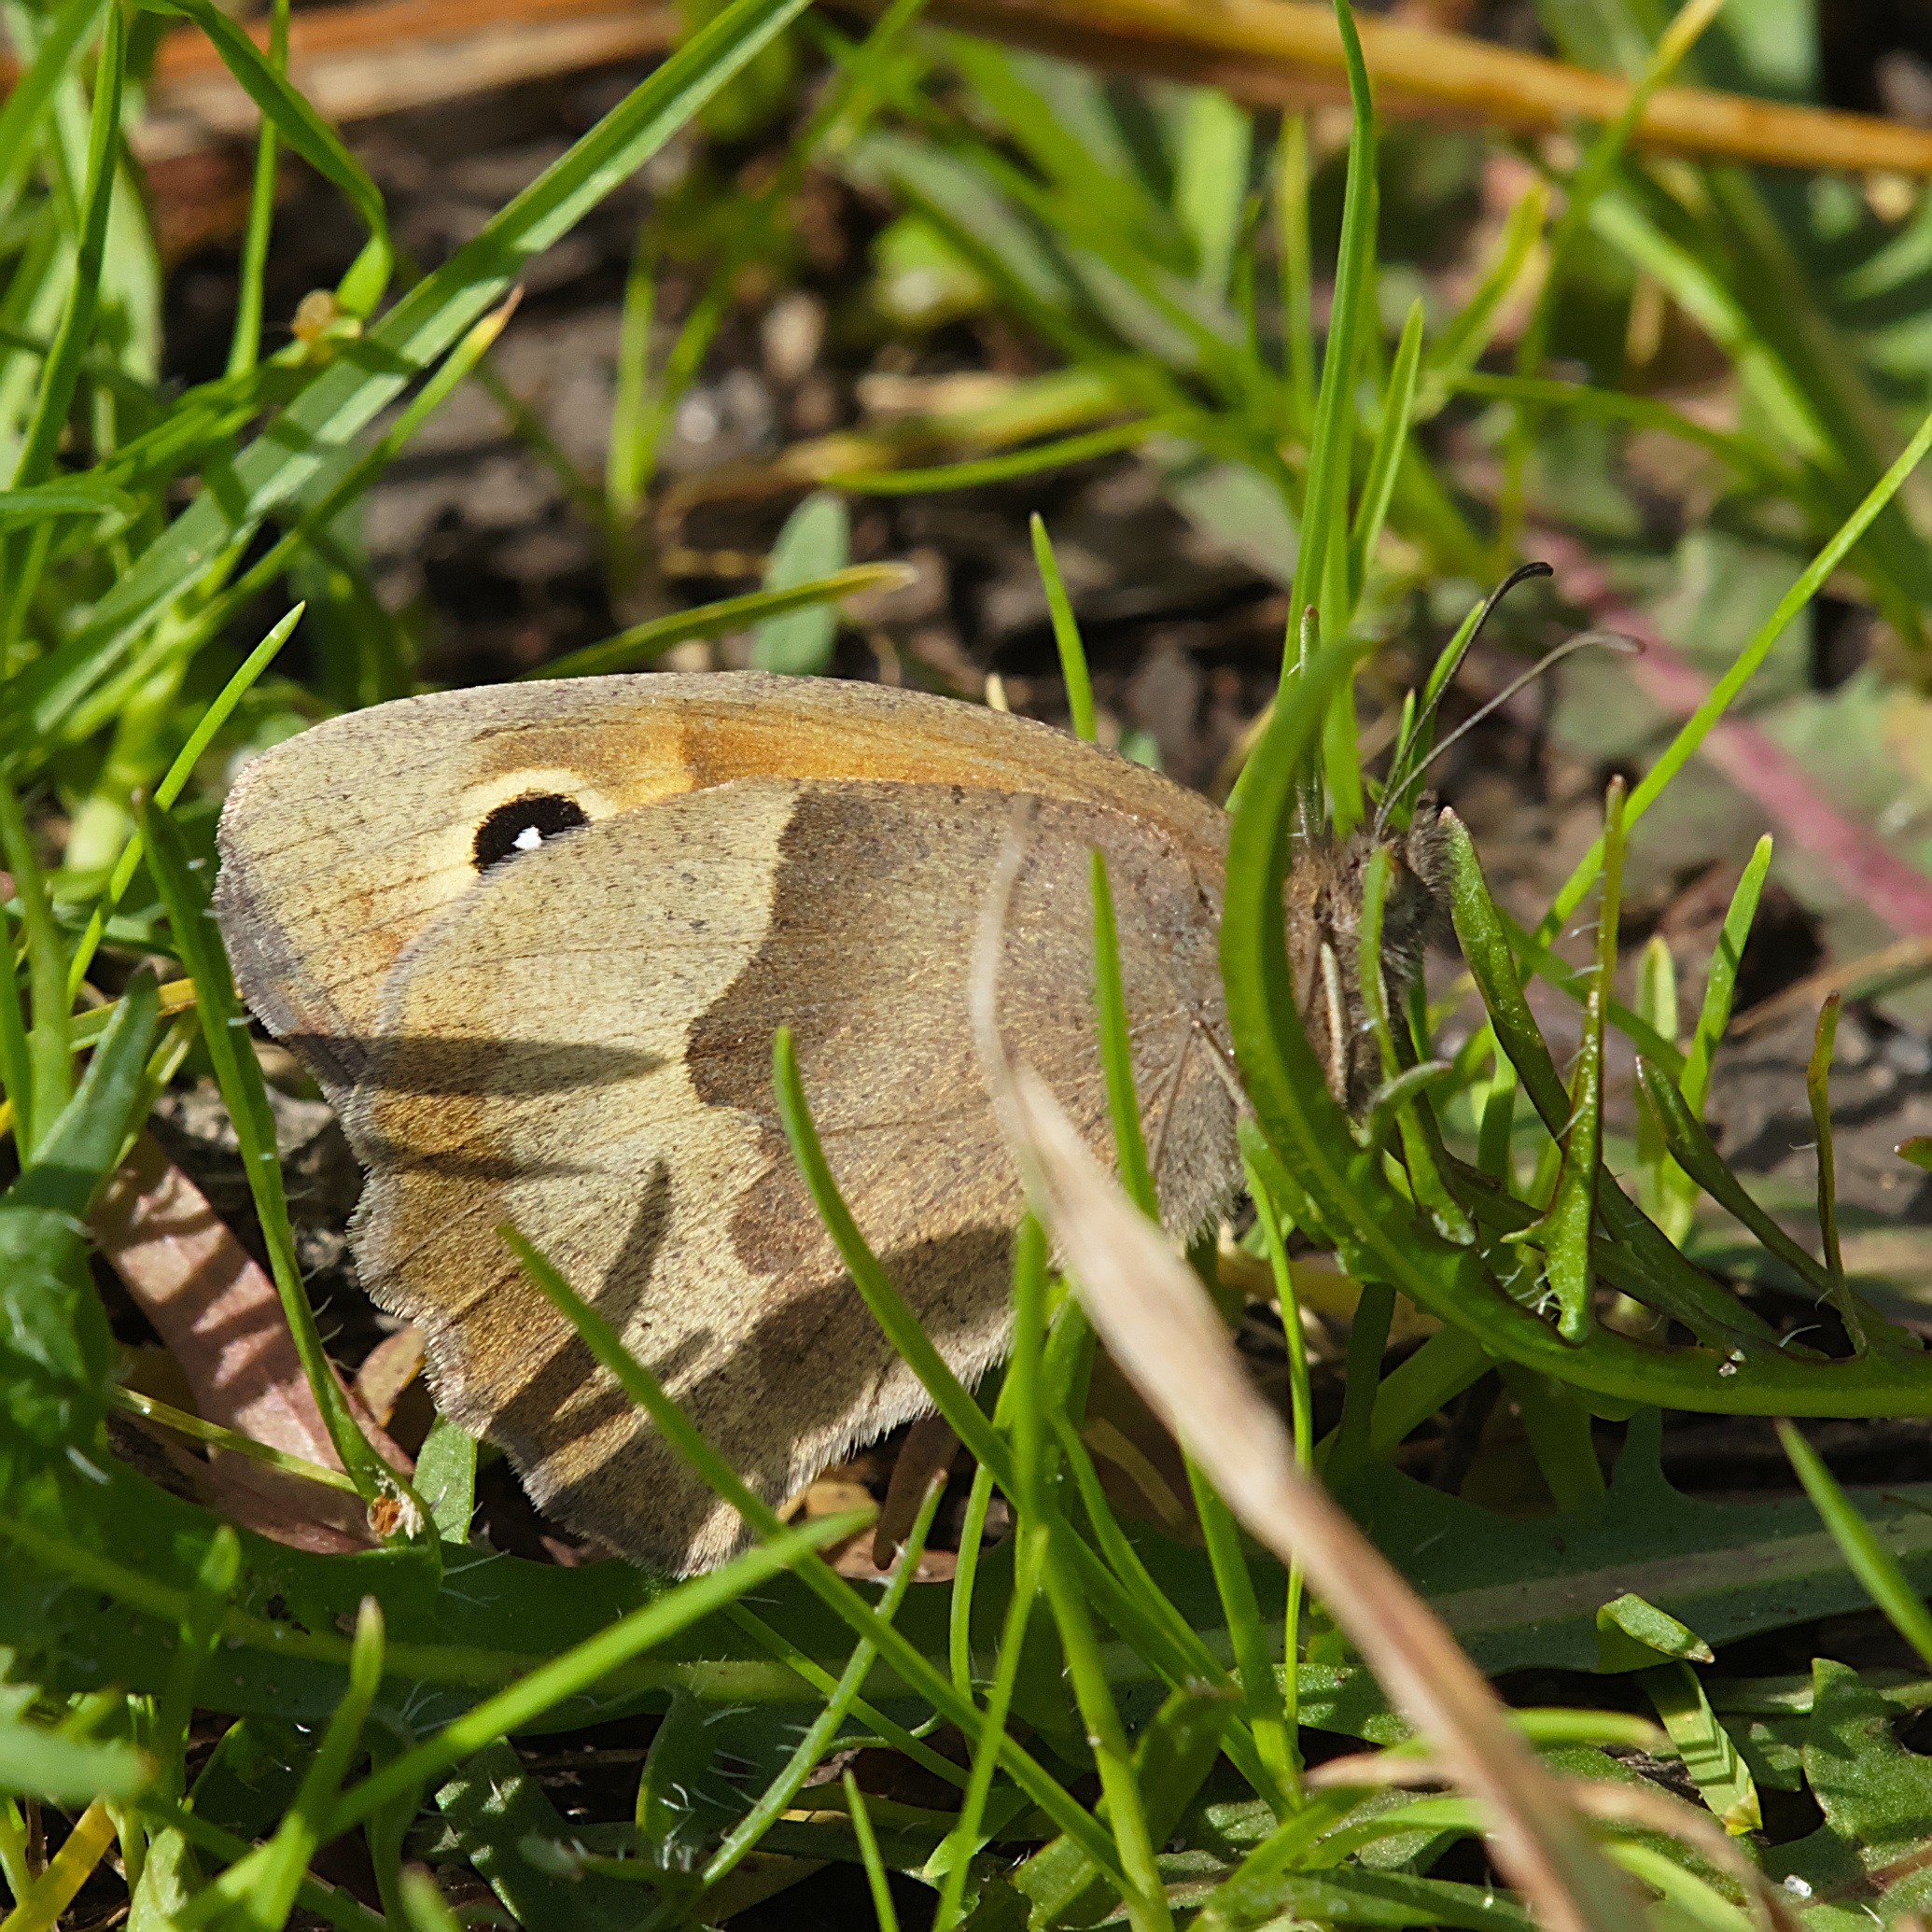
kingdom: Animalia
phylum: Arthropoda
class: Insecta
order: Lepidoptera
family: Nymphalidae
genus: Maniola
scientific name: Maniola jurtina
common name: Græsrandøje
